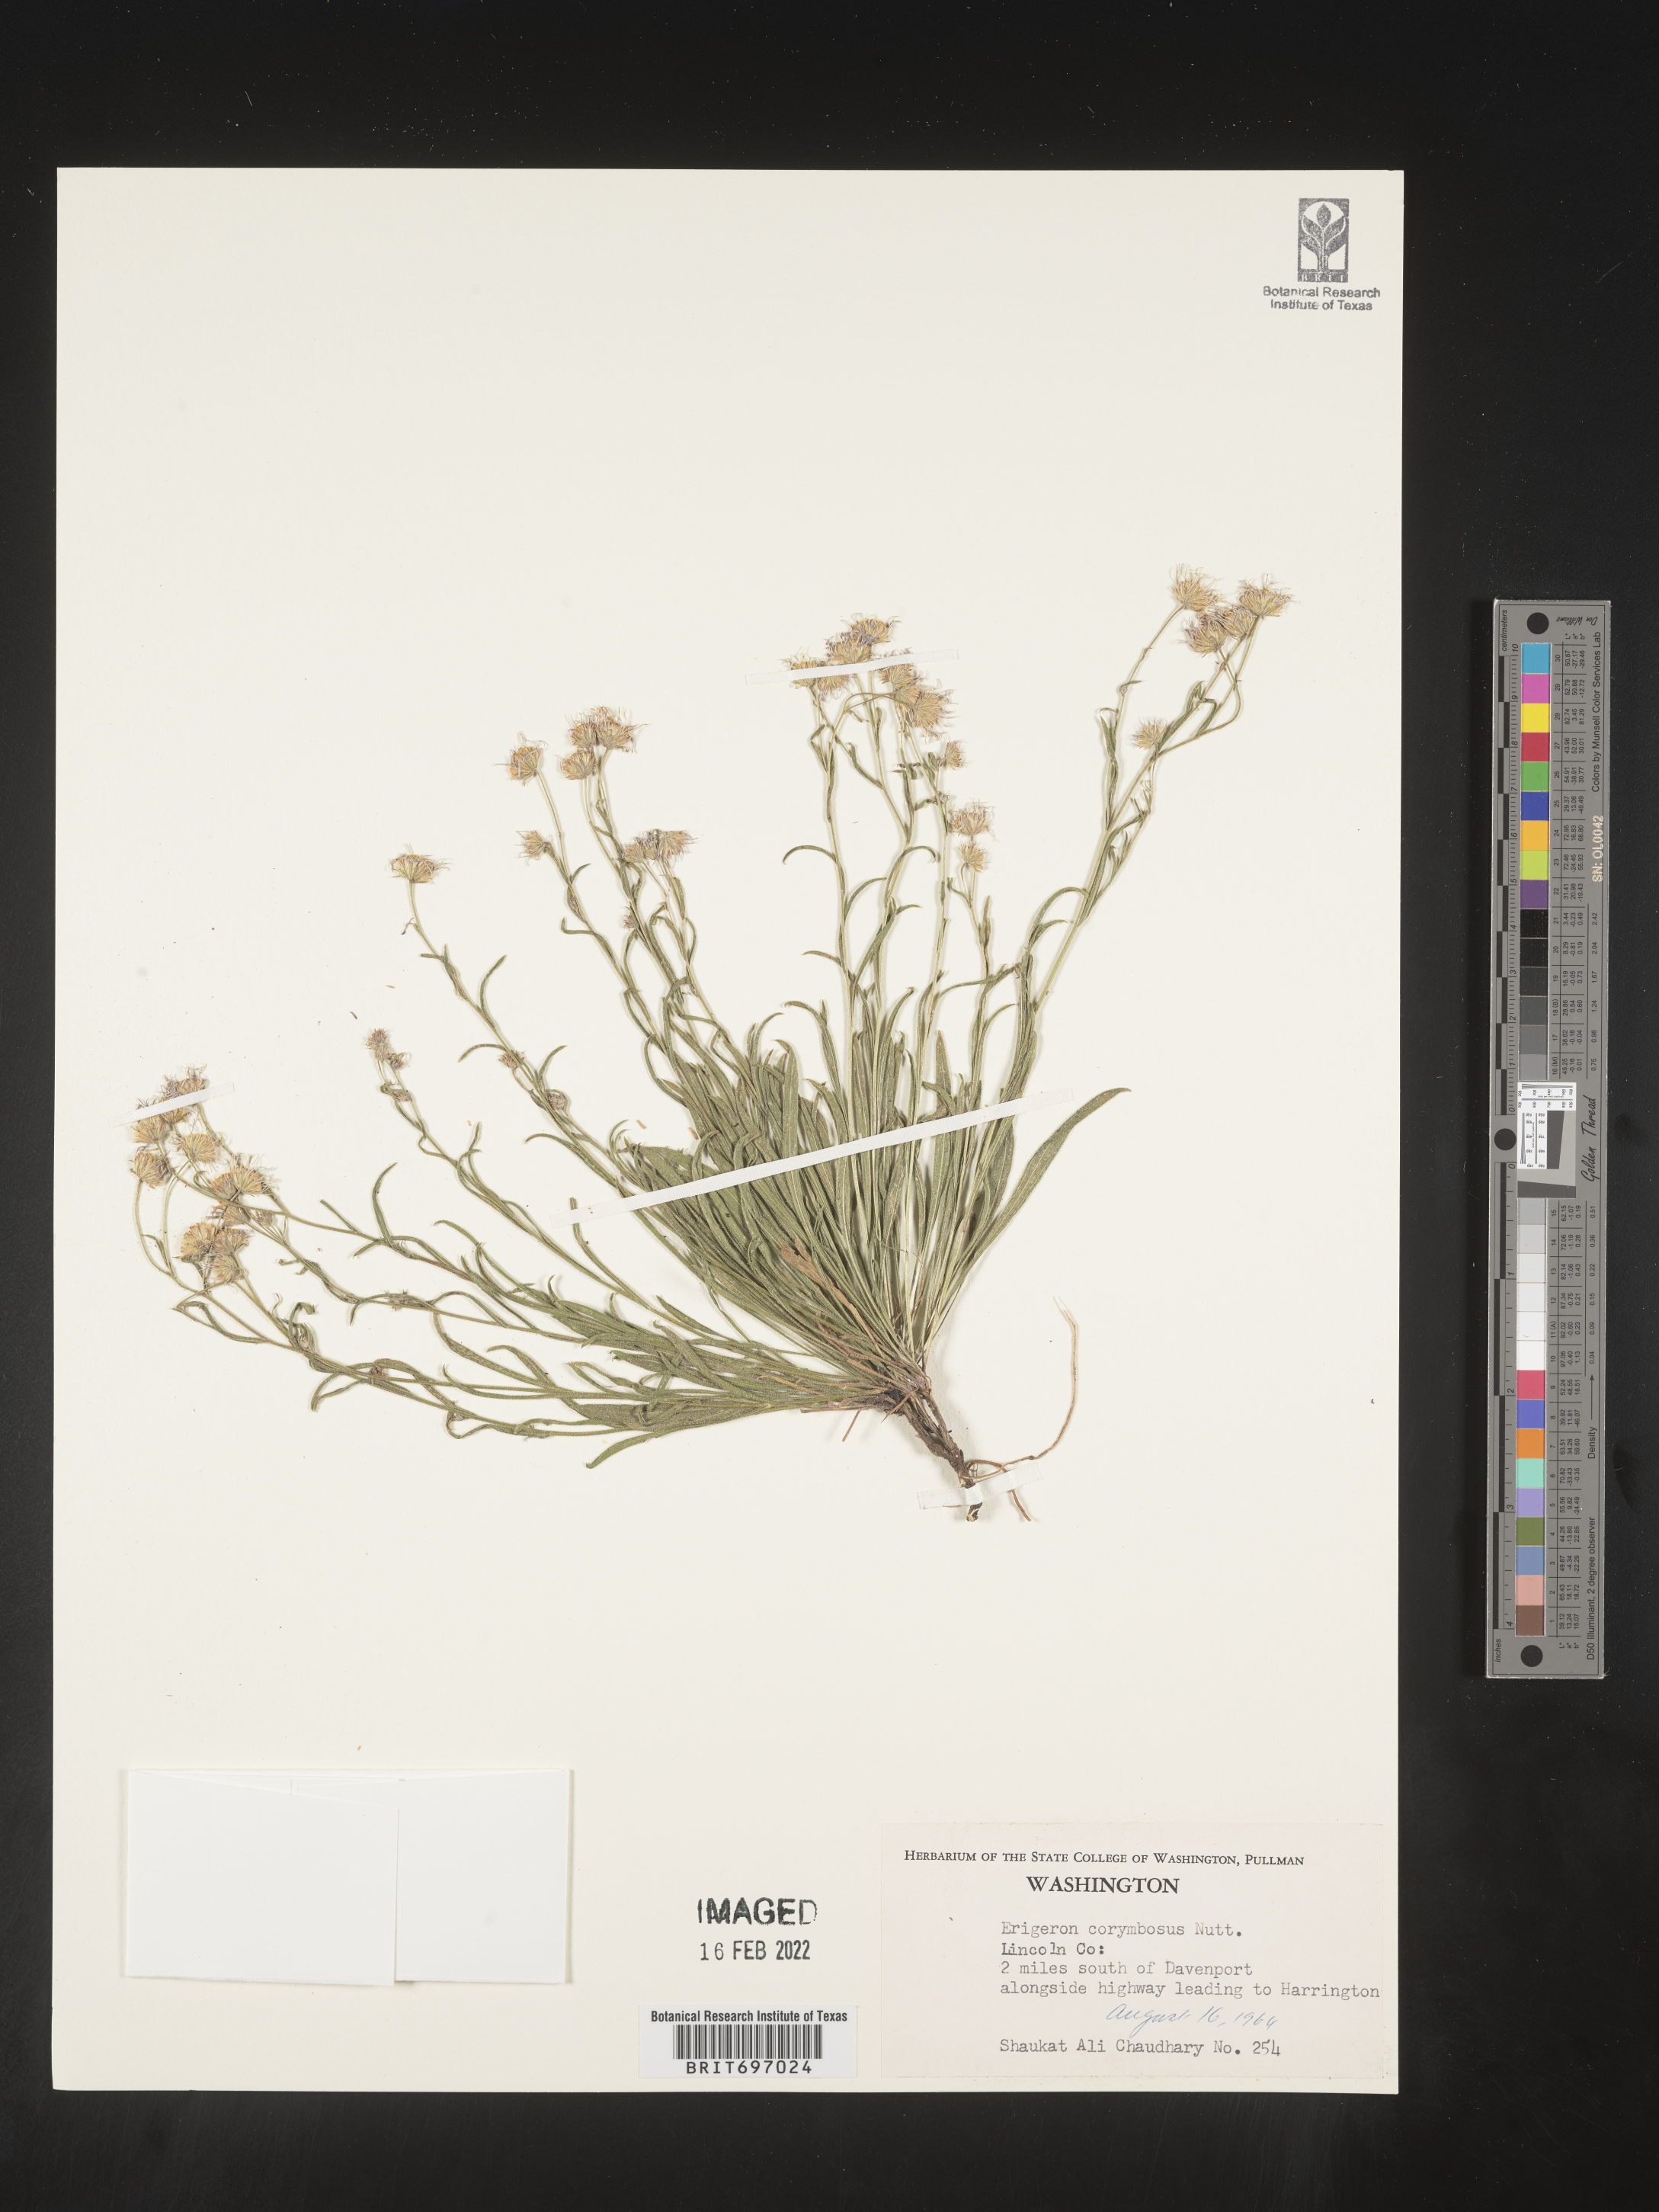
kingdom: Plantae
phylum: Tracheophyta
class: Magnoliopsida
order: Asterales
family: Asteraceae
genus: Erigeron
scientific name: Erigeron corymbosus
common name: Longleaf fleabane
